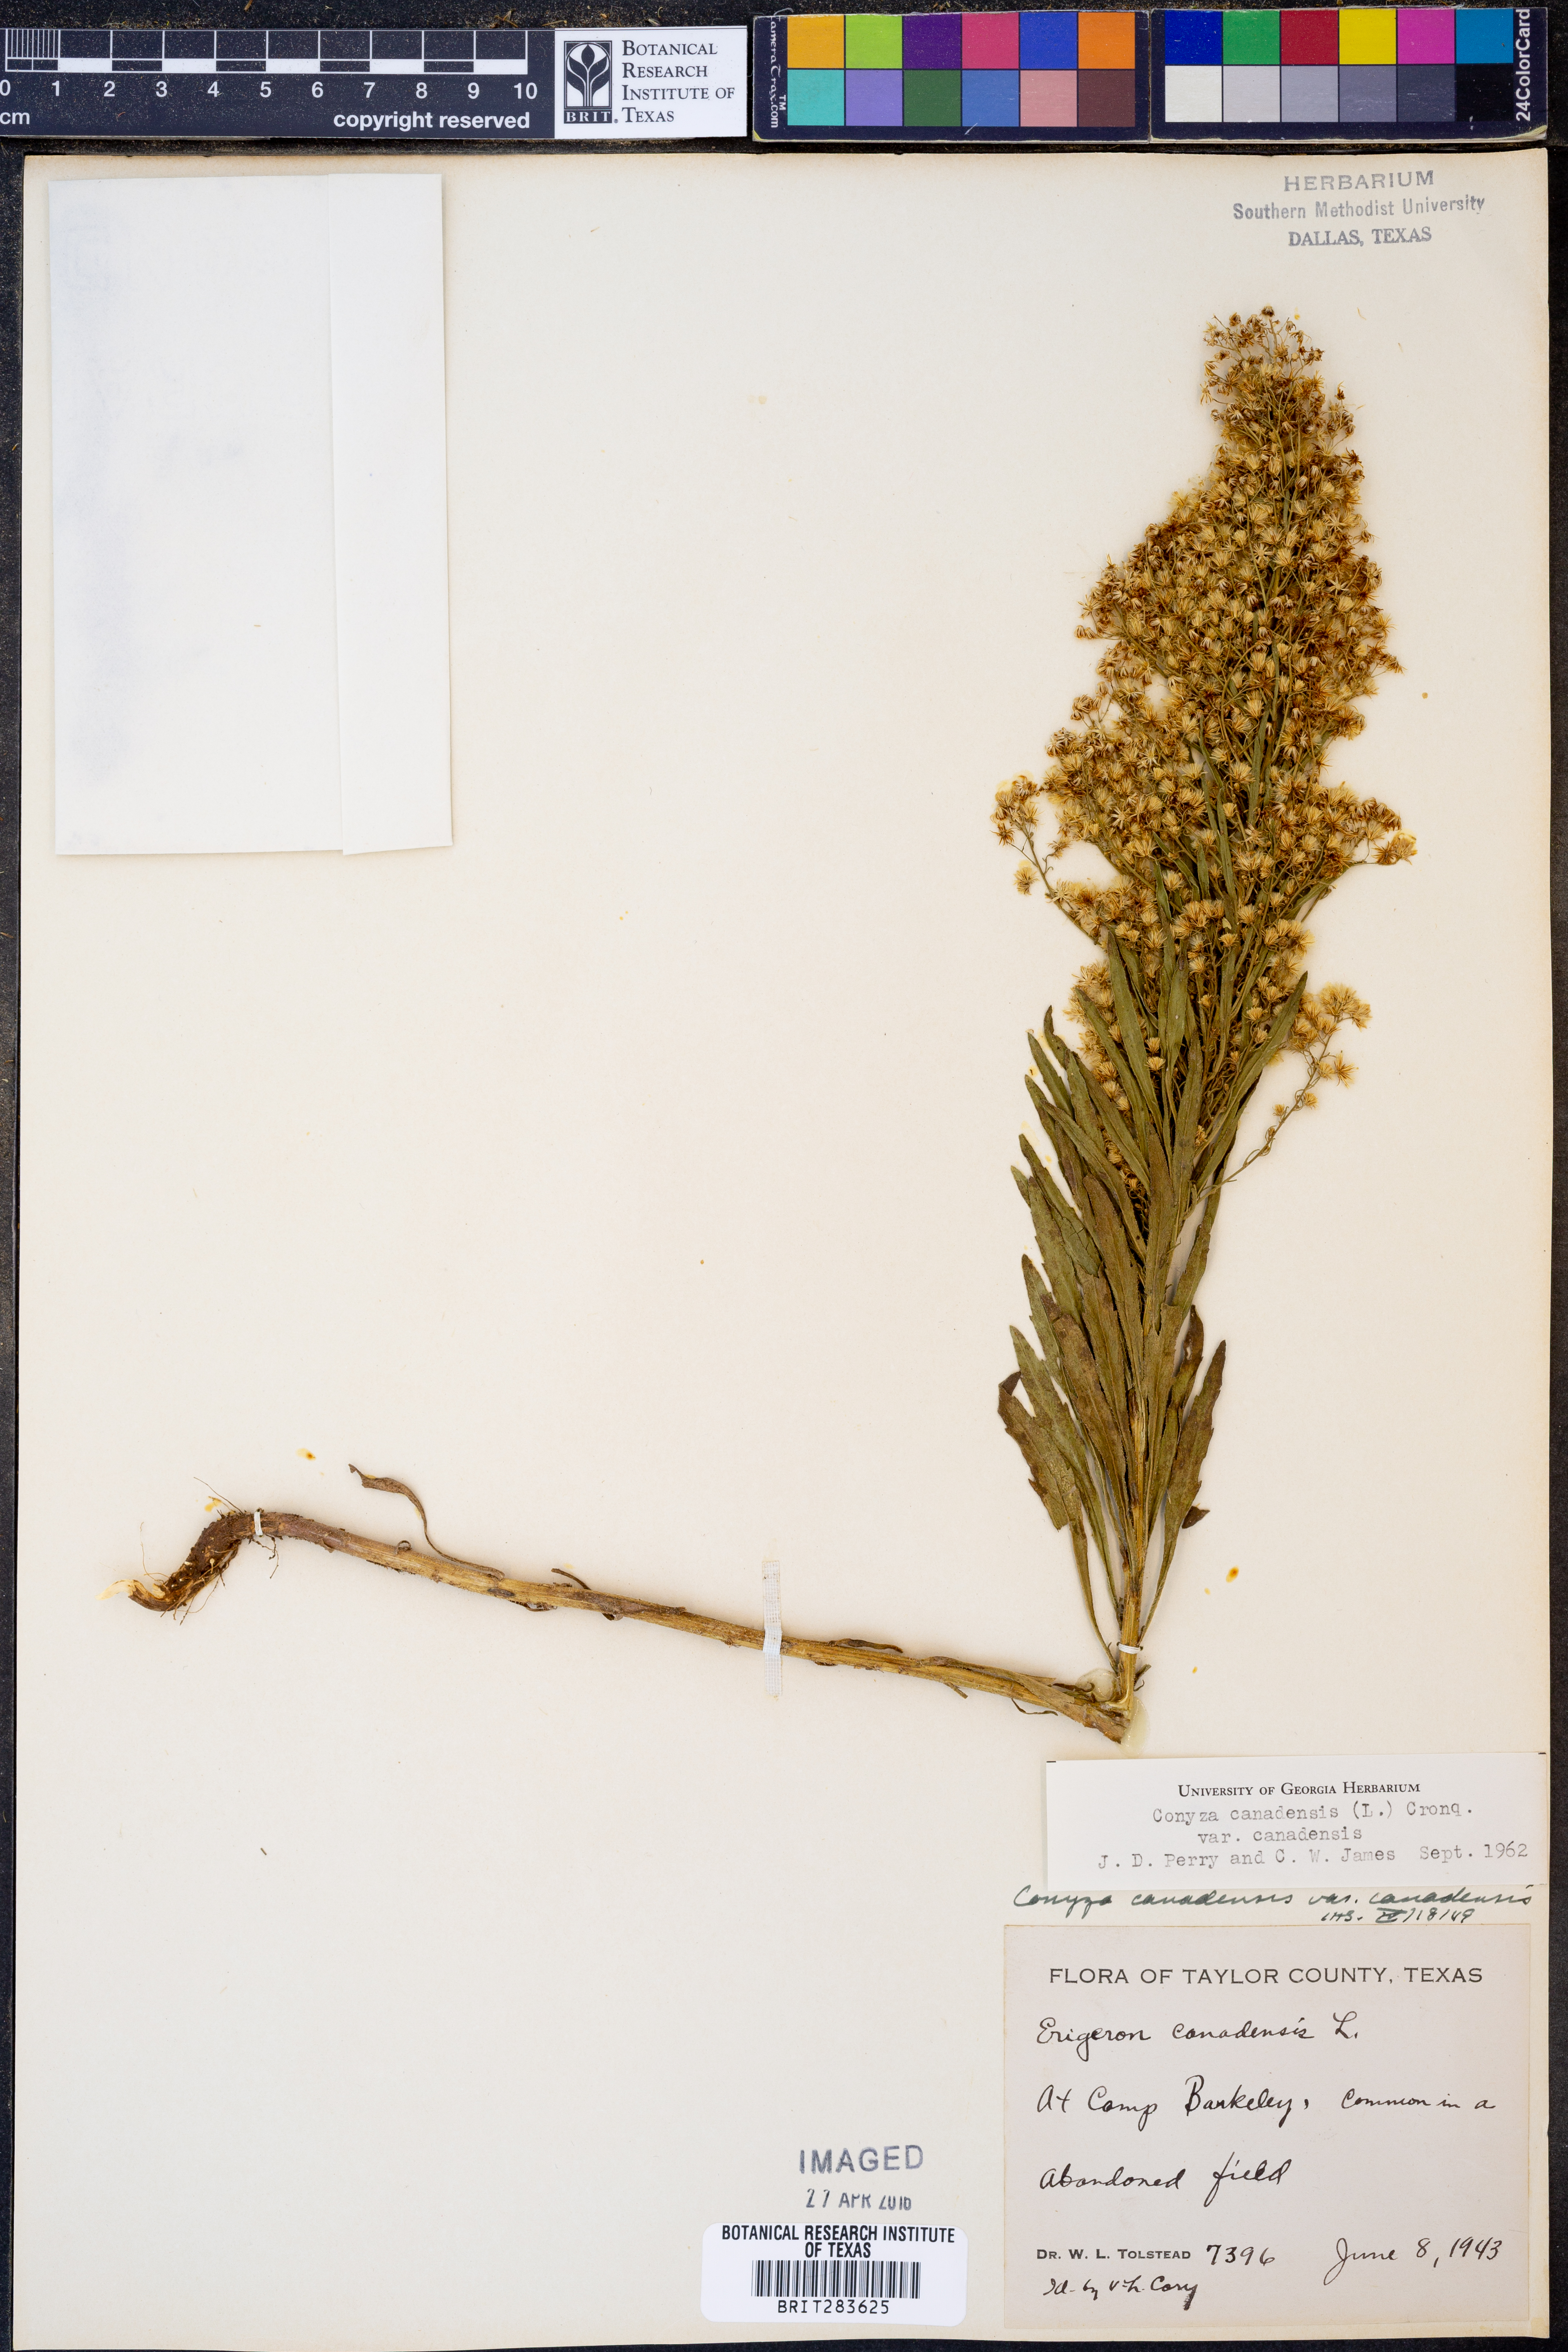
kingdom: Plantae
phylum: Tracheophyta
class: Magnoliopsida
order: Asterales
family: Asteraceae
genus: Erigeron
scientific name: Erigeron canadensis
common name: Canadian fleabane
